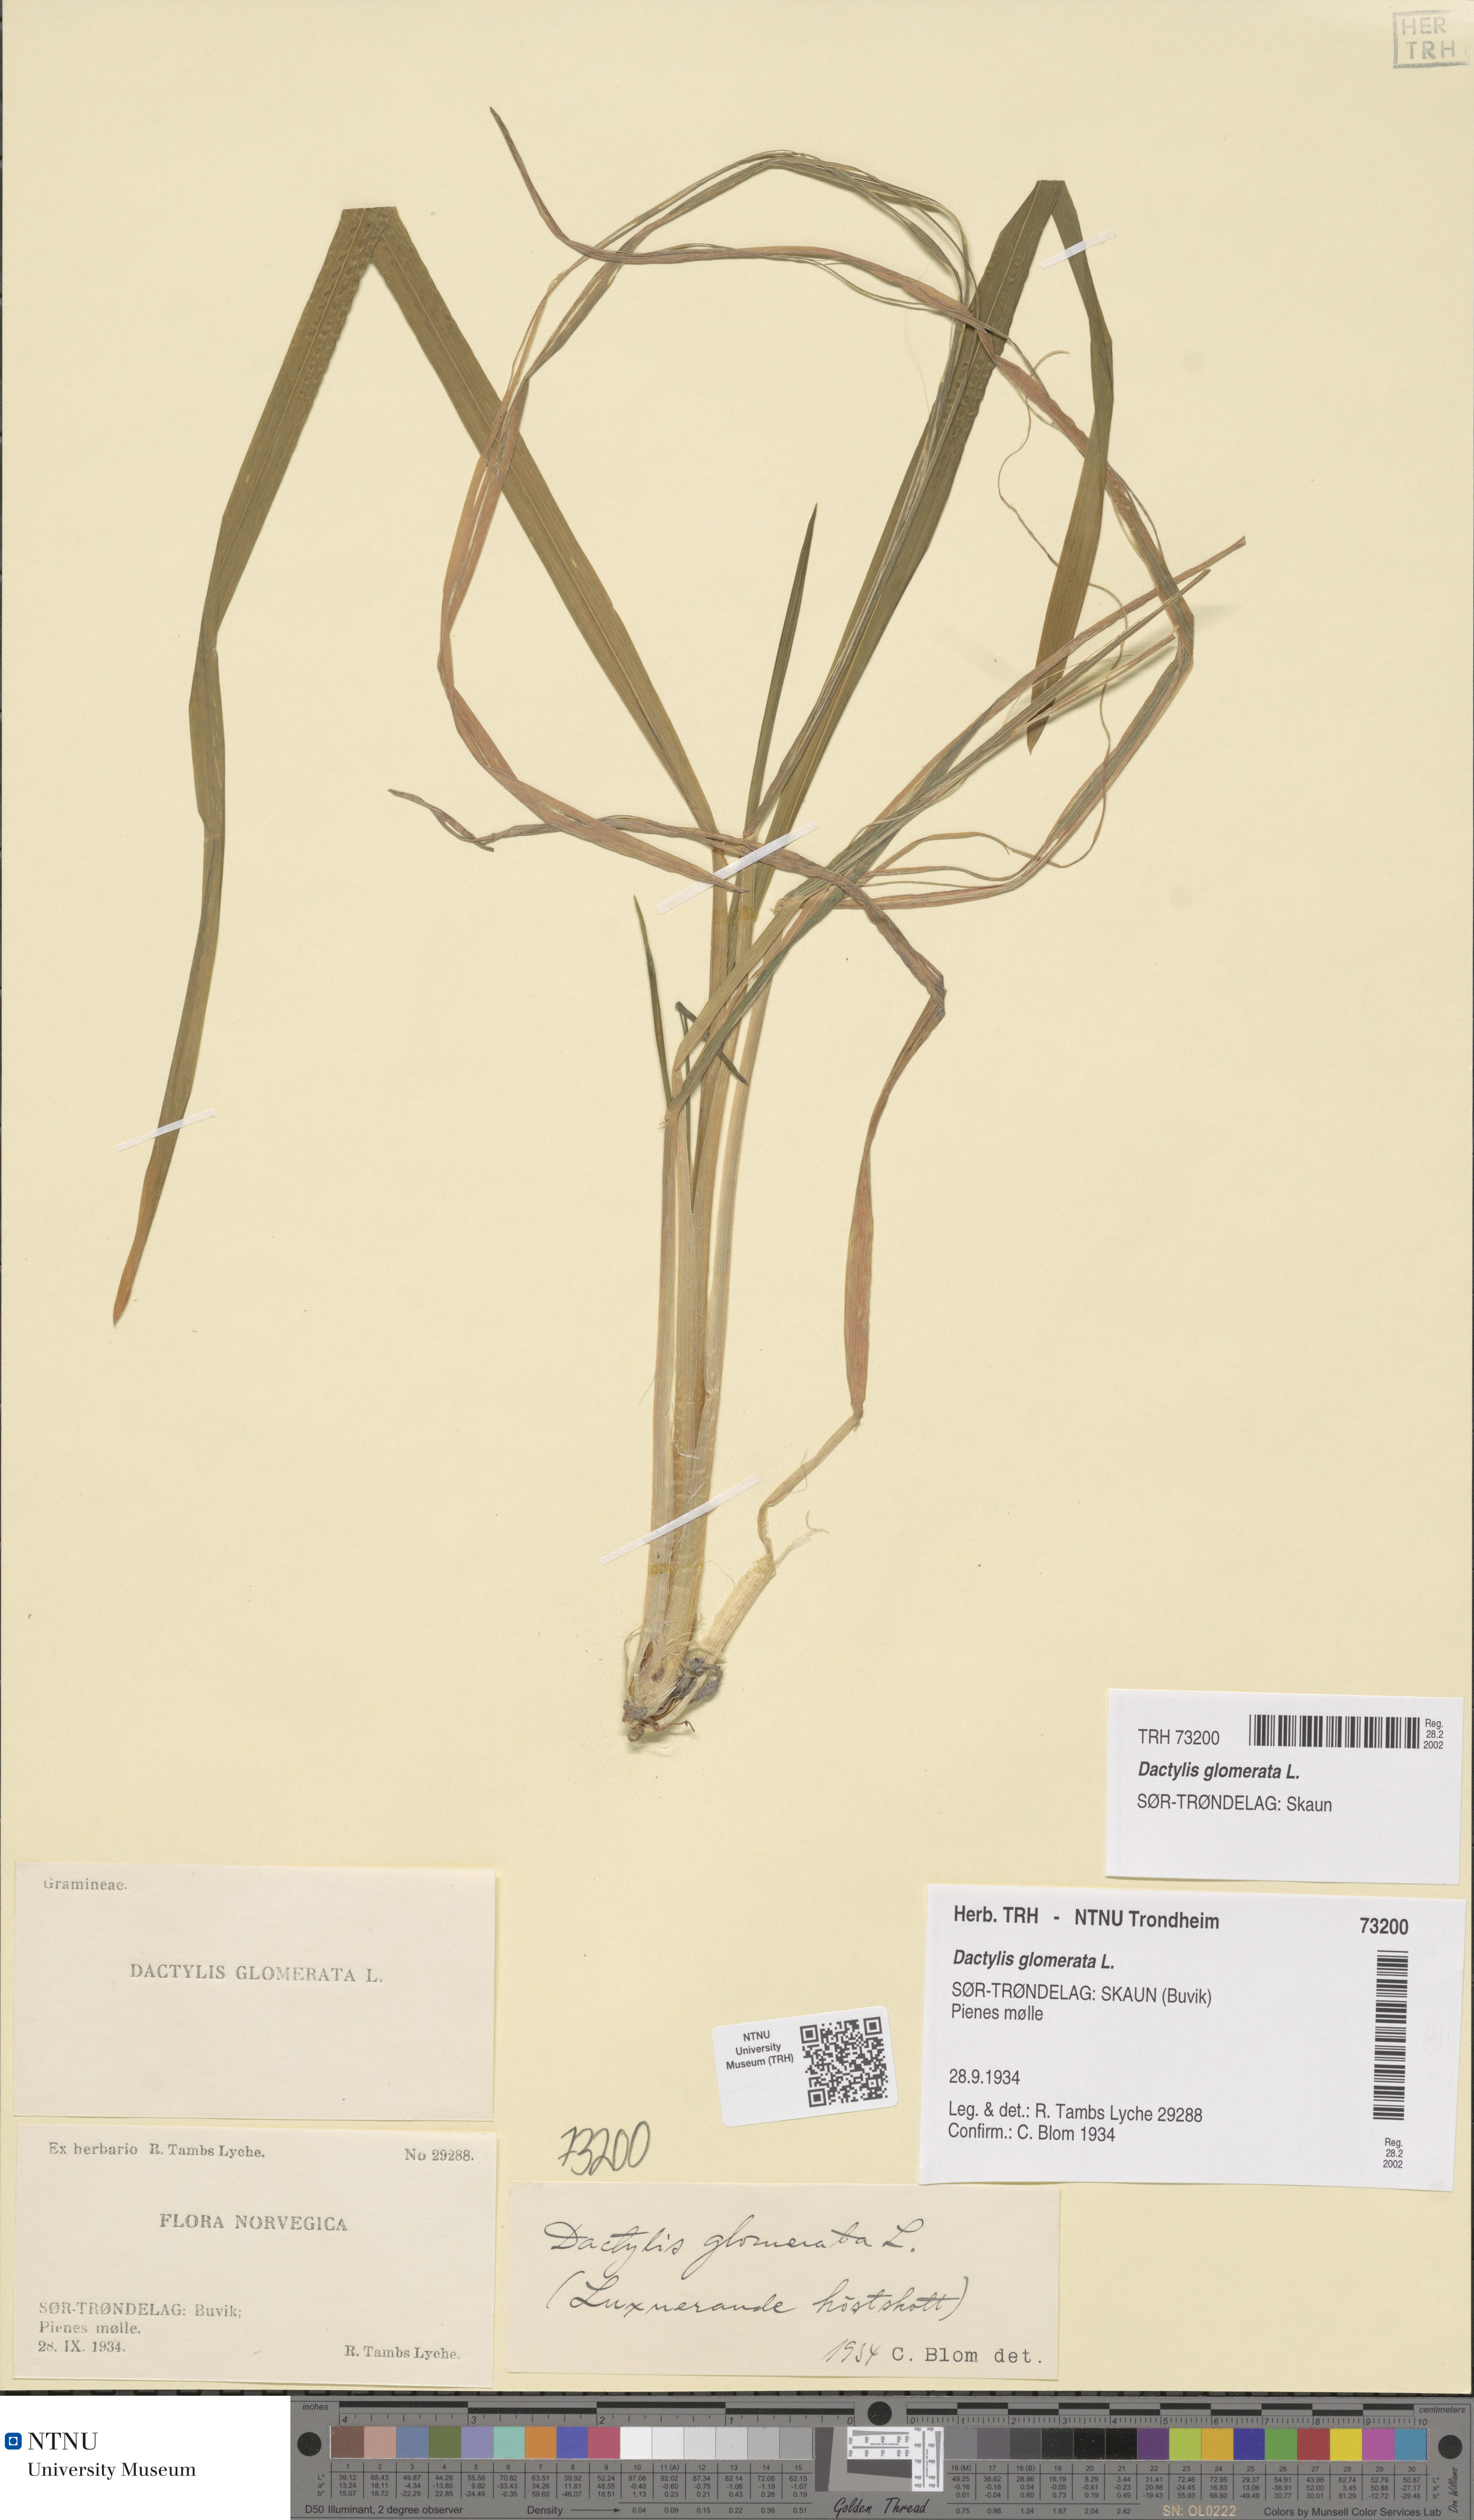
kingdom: Plantae
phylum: Tracheophyta
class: Liliopsida
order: Poales
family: Poaceae
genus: Dactylis
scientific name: Dactylis glomerata
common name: Orchardgrass
